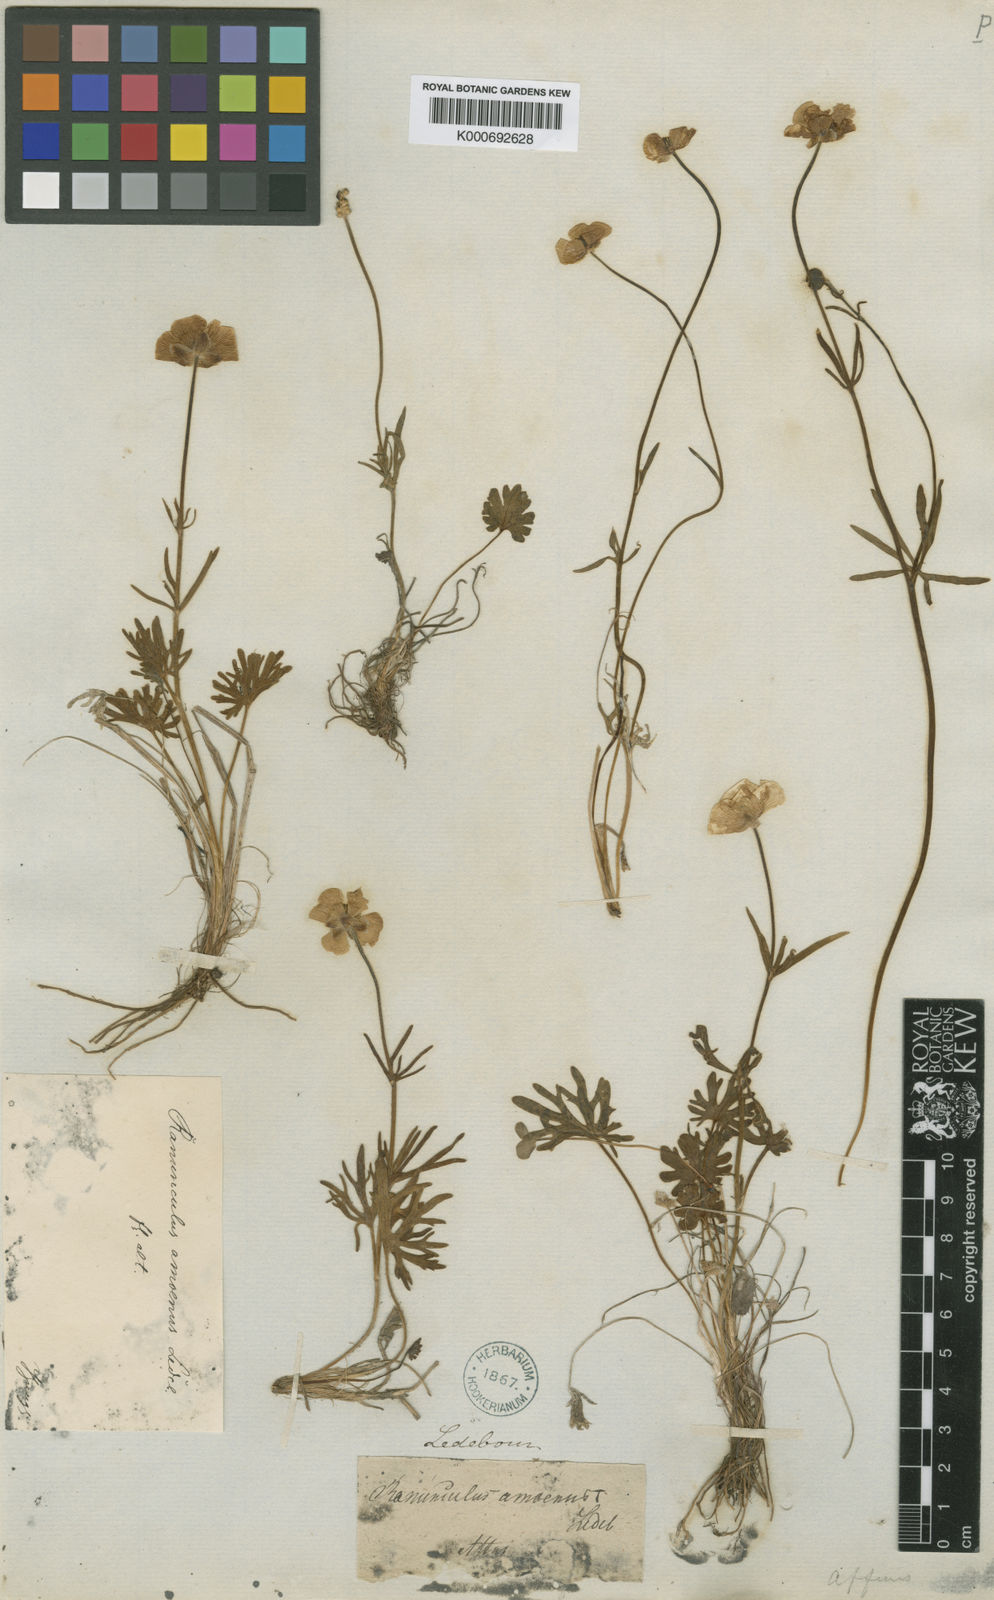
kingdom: Plantae
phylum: Tracheophyta
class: Magnoliopsida
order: Ranunculales
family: Ranunculaceae
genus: Ranunculus
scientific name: Ranunculus arcticus
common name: Bird's-foot buttercup
